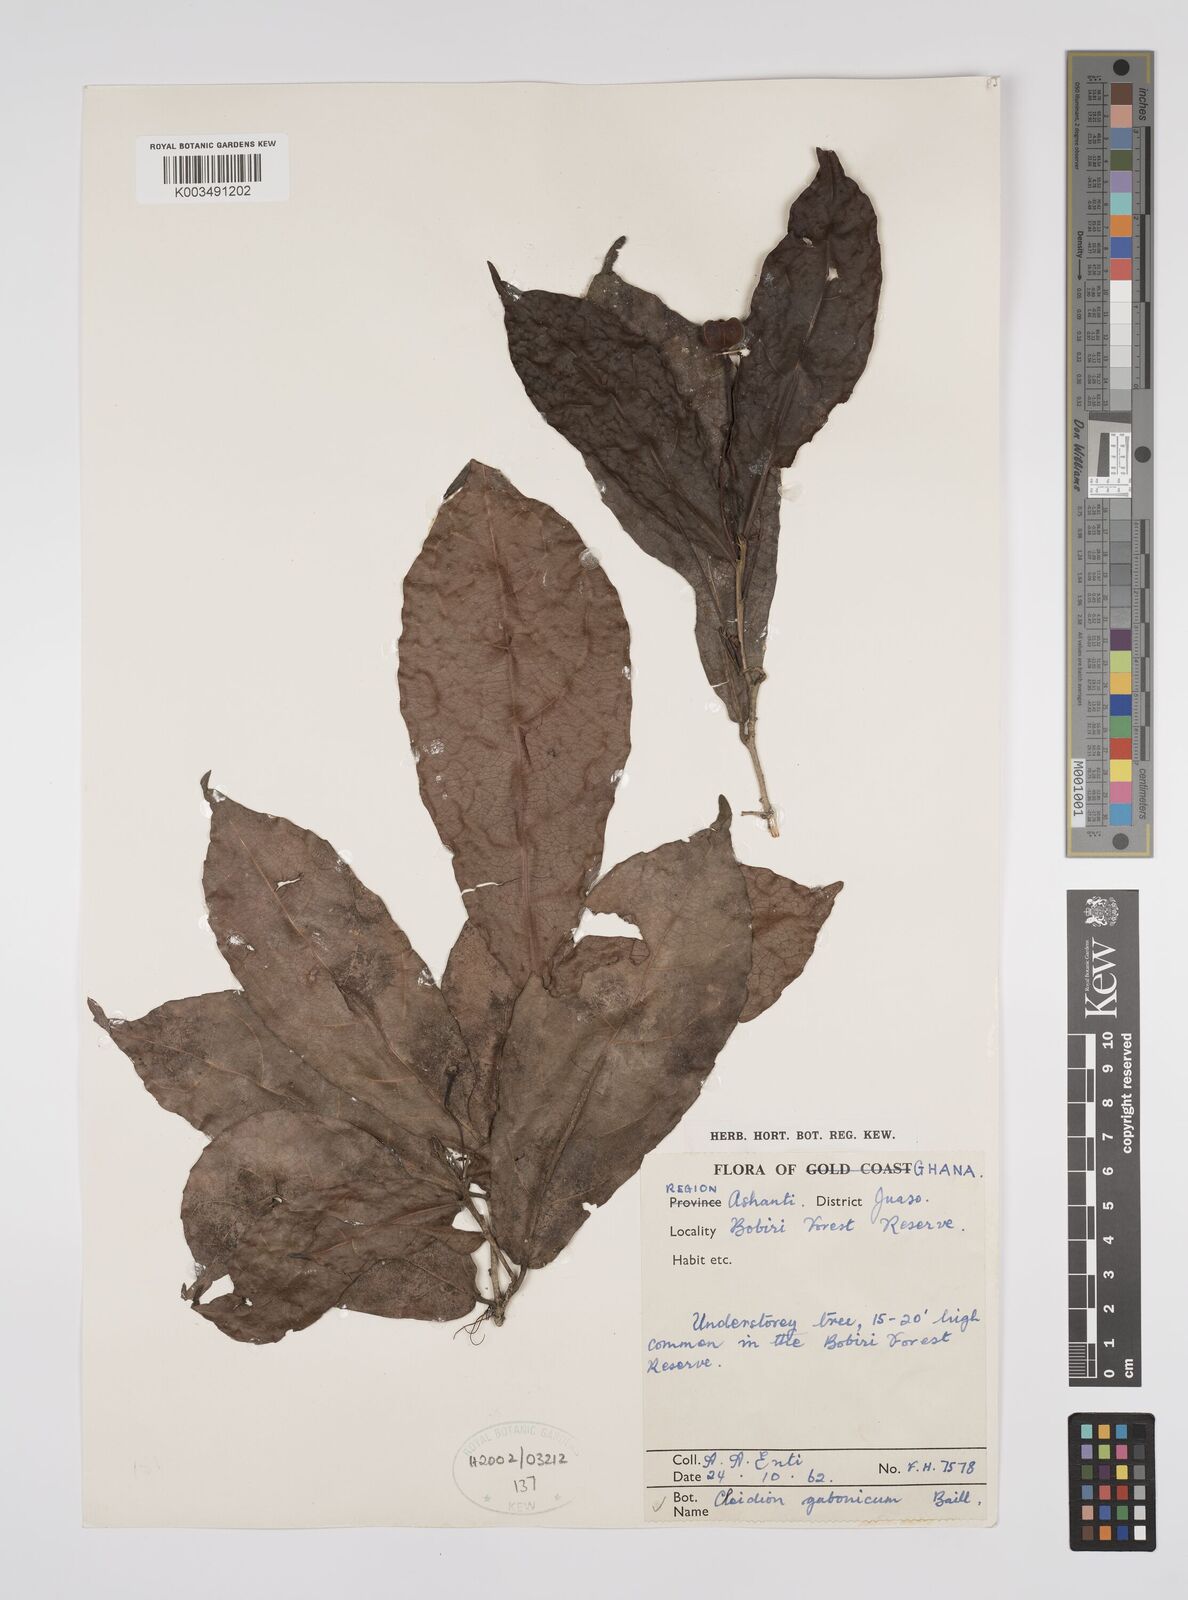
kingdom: Plantae
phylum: Tracheophyta
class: Magnoliopsida
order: Malpighiales
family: Euphorbiaceae
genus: Cleidion
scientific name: Cleidion gabonicum
